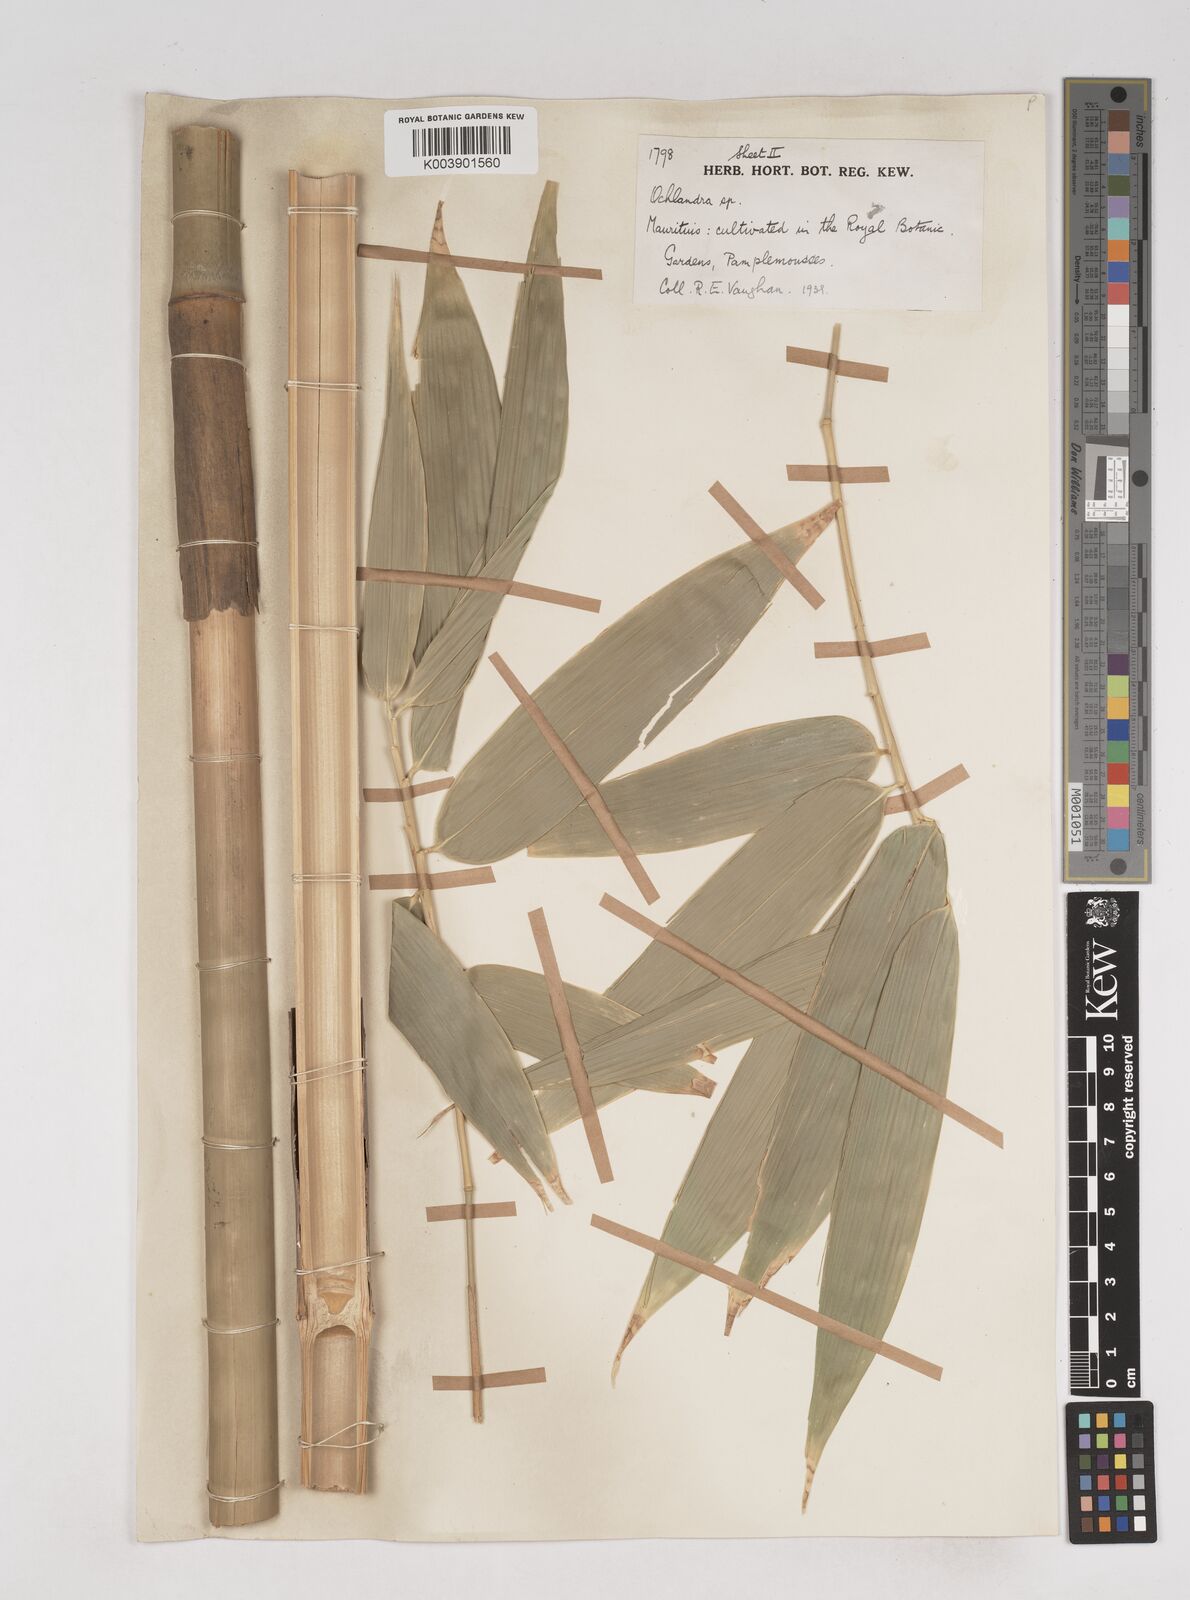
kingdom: Plantae
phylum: Tracheophyta
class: Liliopsida
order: Poales
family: Poaceae
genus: Ochlandra
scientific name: Ochlandra
